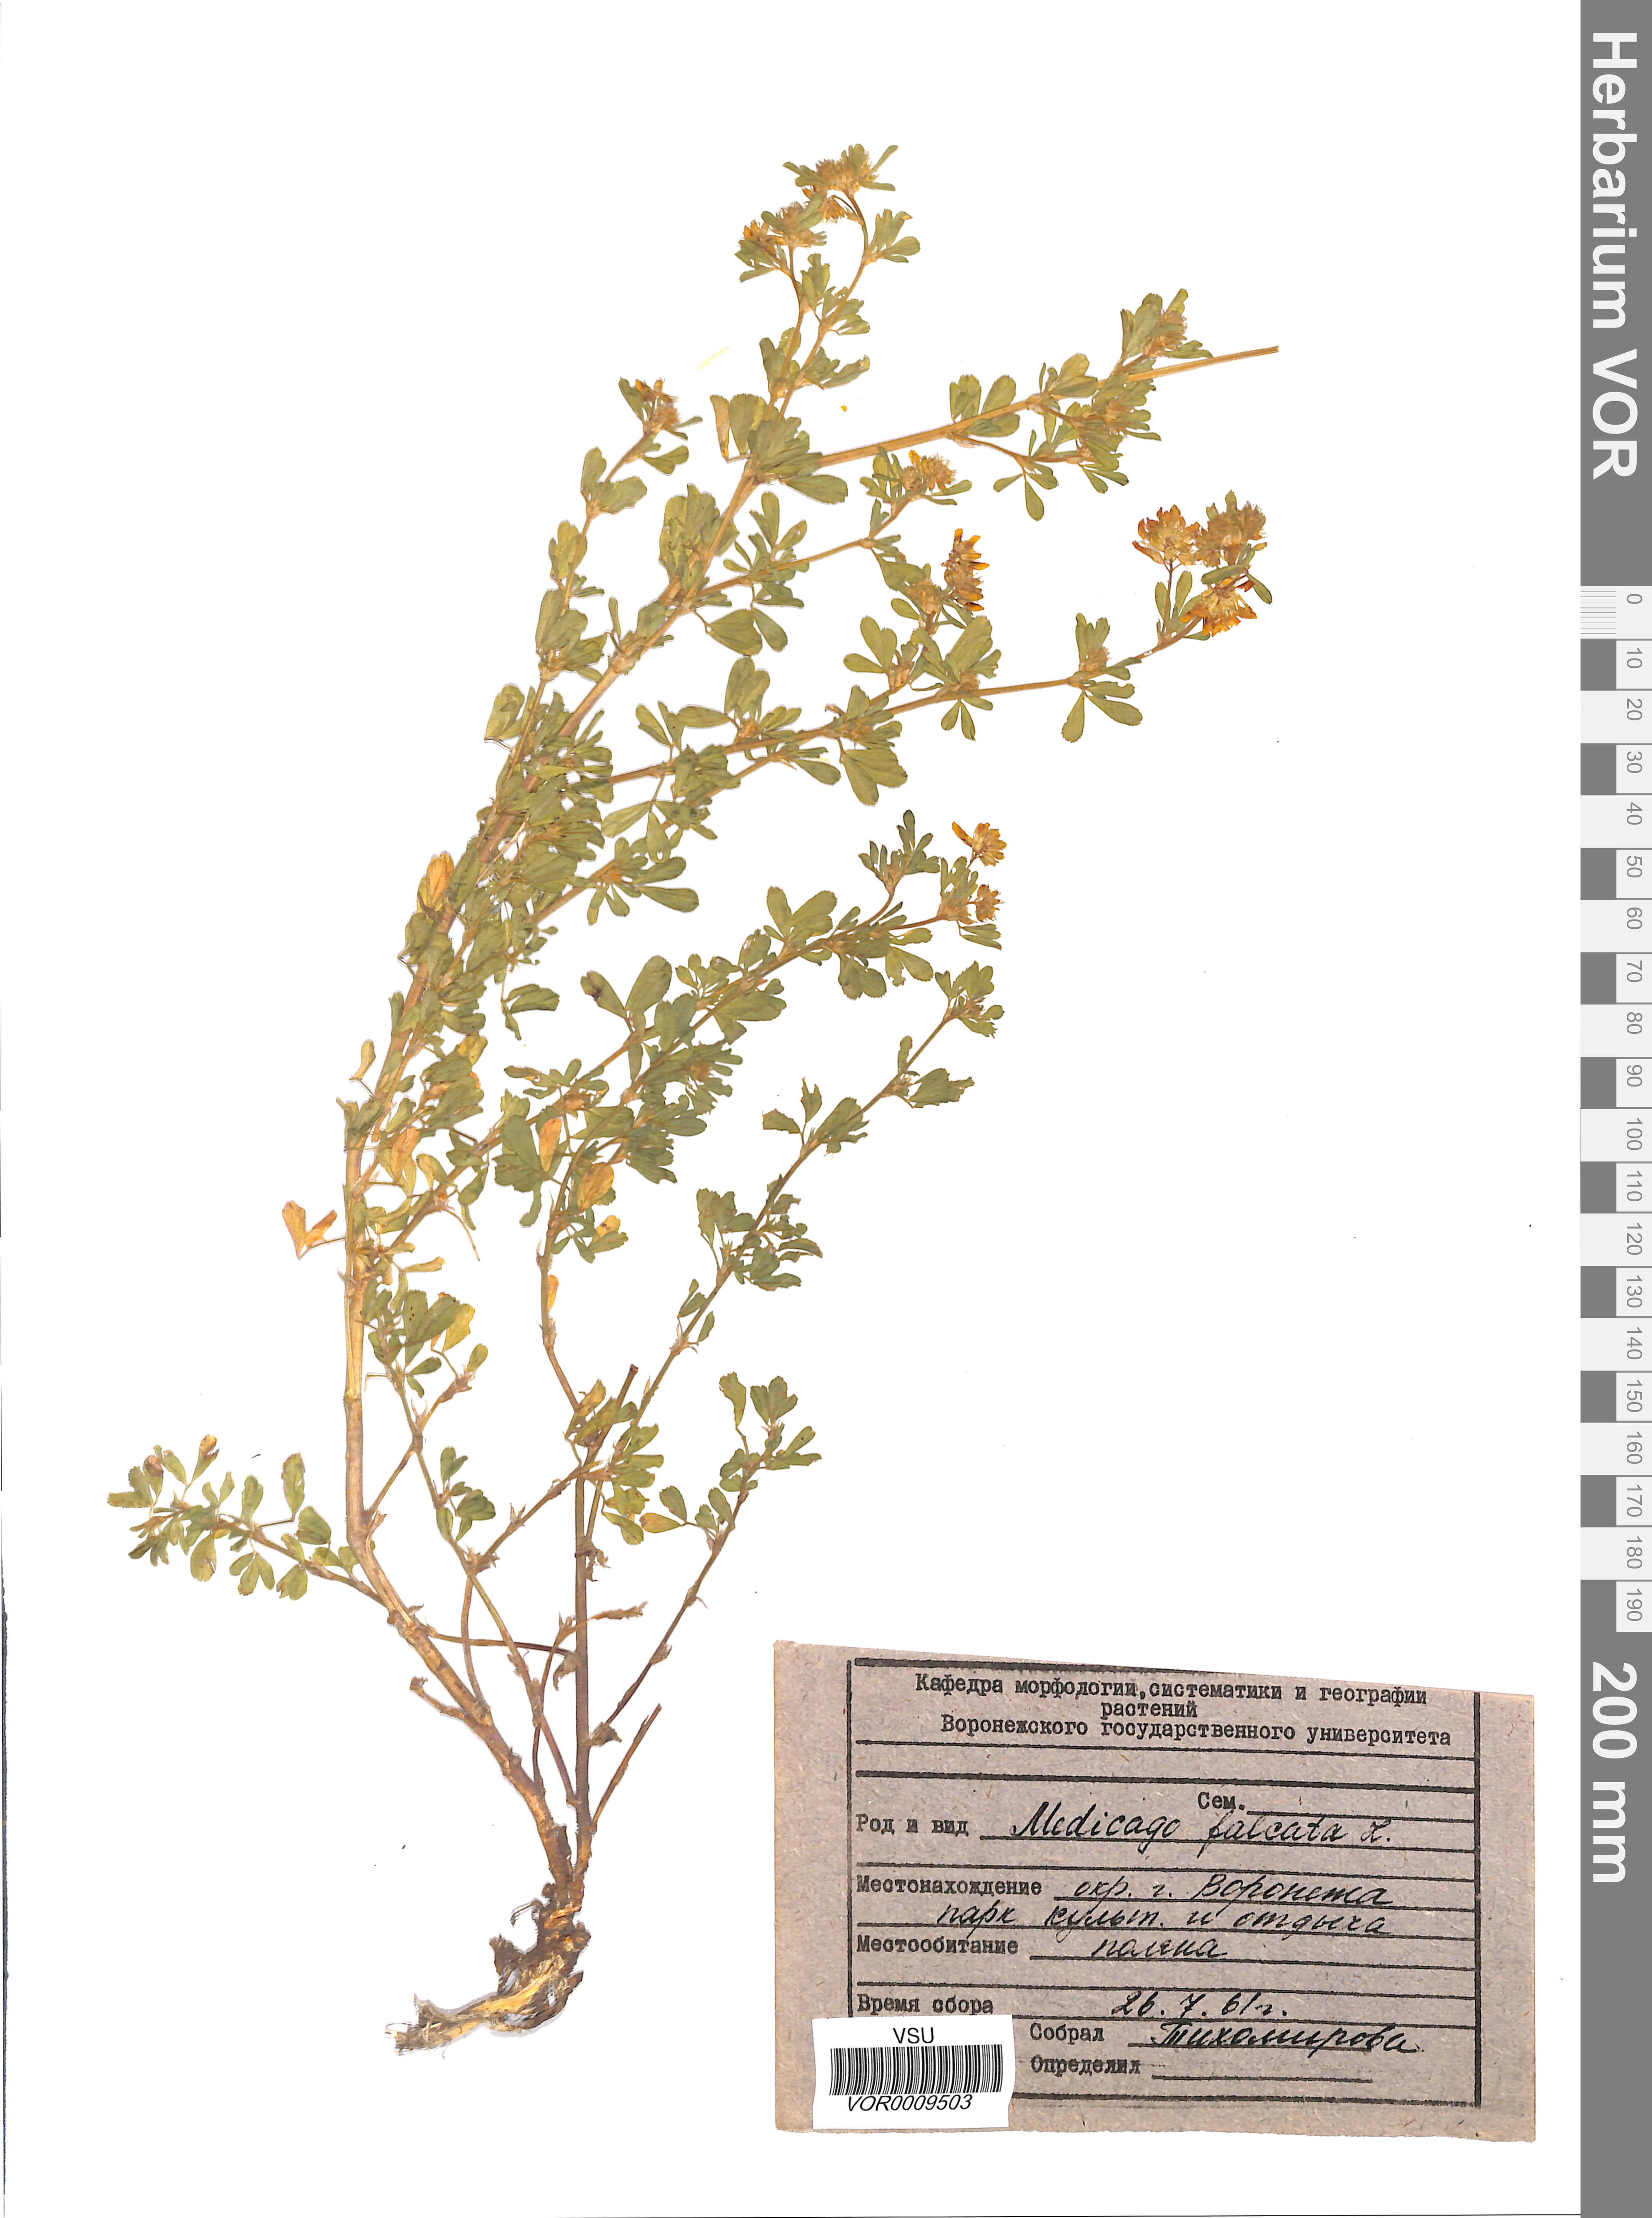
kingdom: Plantae
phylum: Tracheophyta
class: Magnoliopsida
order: Fabales
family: Fabaceae
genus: Medicago
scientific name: Medicago falcata
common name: Sickle medick
